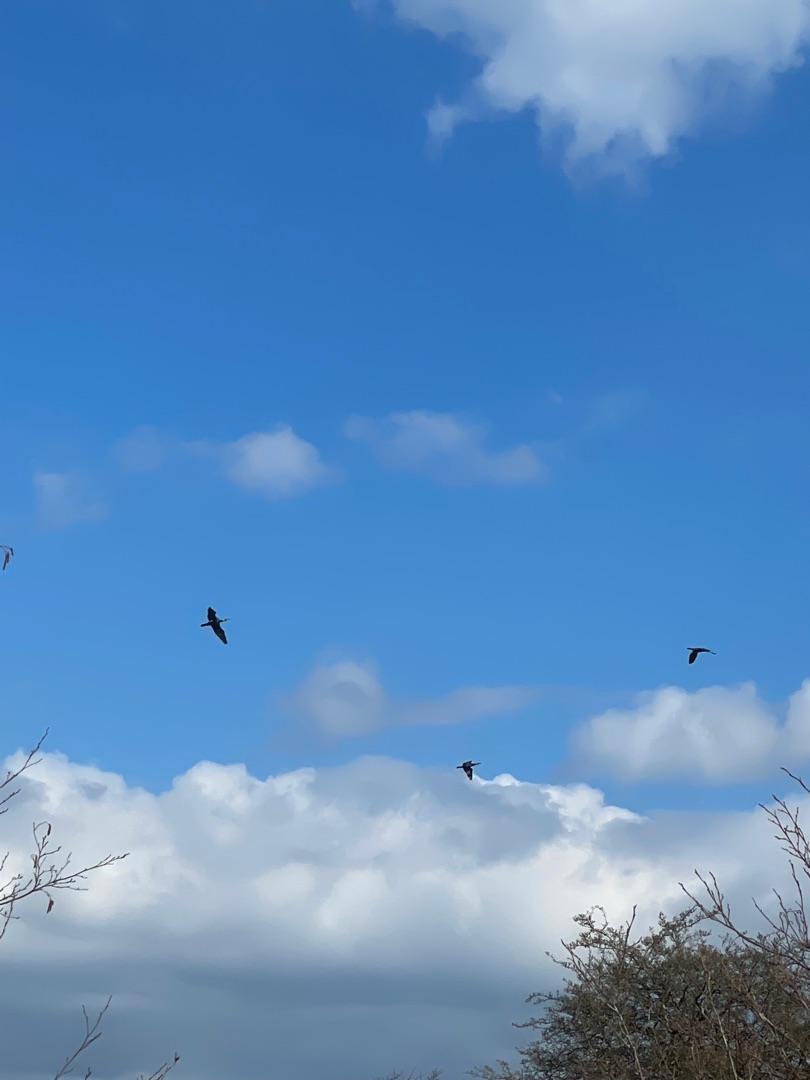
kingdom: Animalia
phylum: Chordata
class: Aves
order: Suliformes
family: Phalacrocoracidae
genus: Phalacrocorax
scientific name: Phalacrocorax carbo
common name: Skarv
